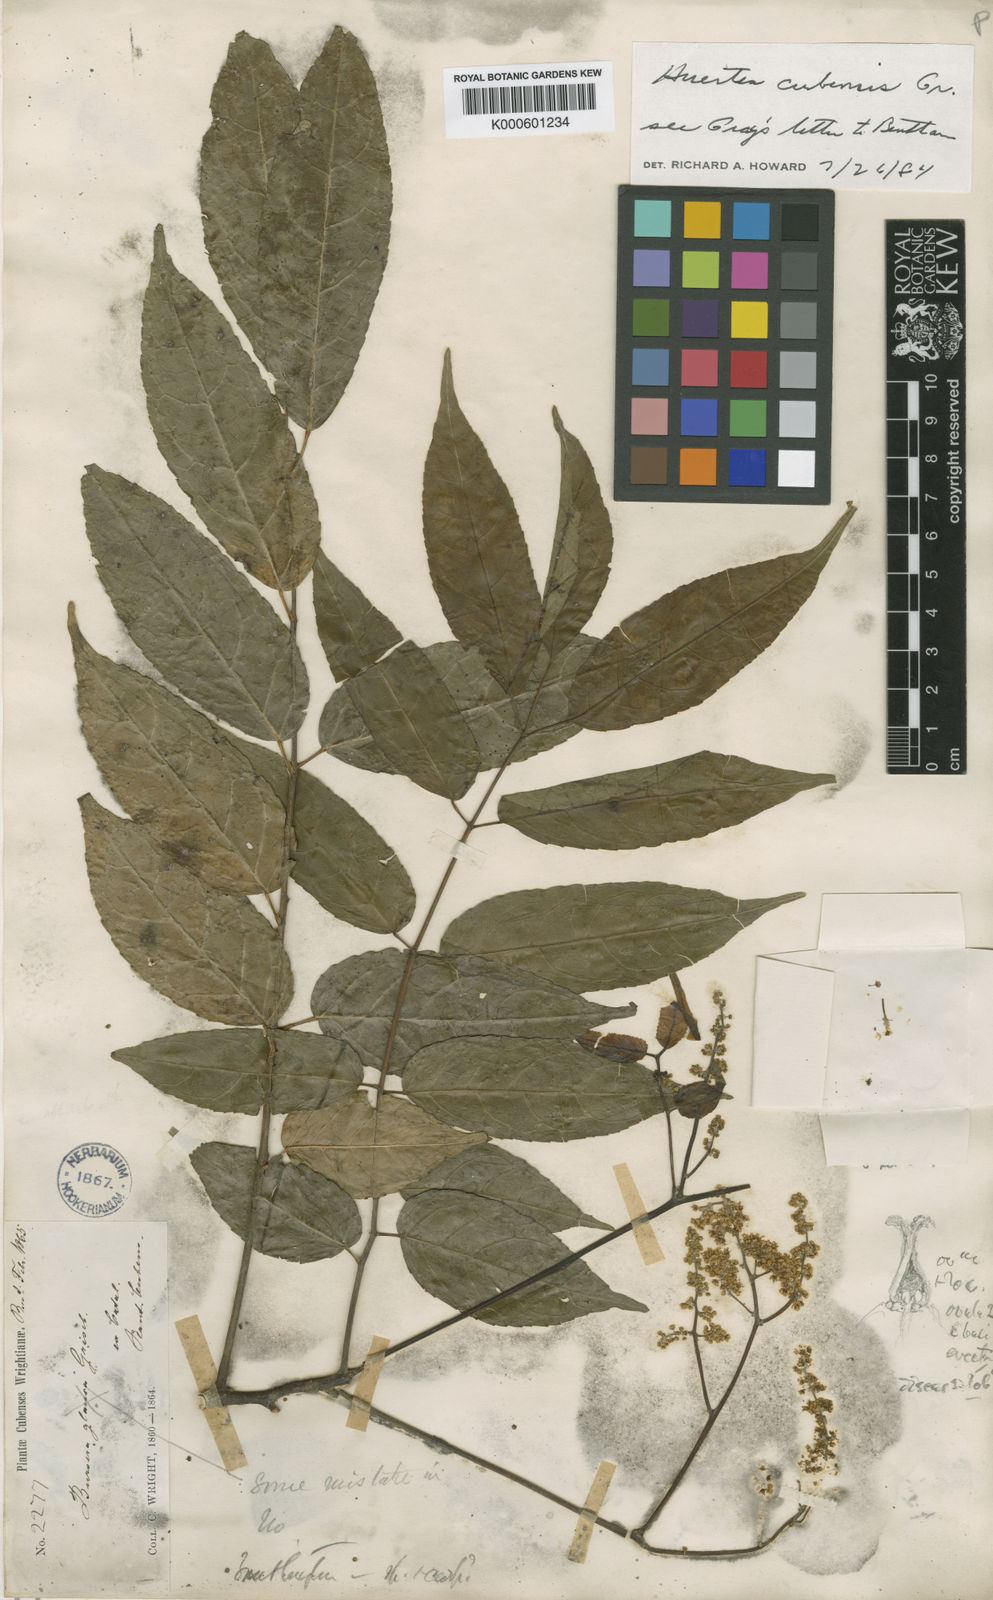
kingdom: Plantae
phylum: Tracheophyta
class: Magnoliopsida
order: Huerteales
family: Tapisciaceae
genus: Huertea
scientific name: Huertea cubensis
